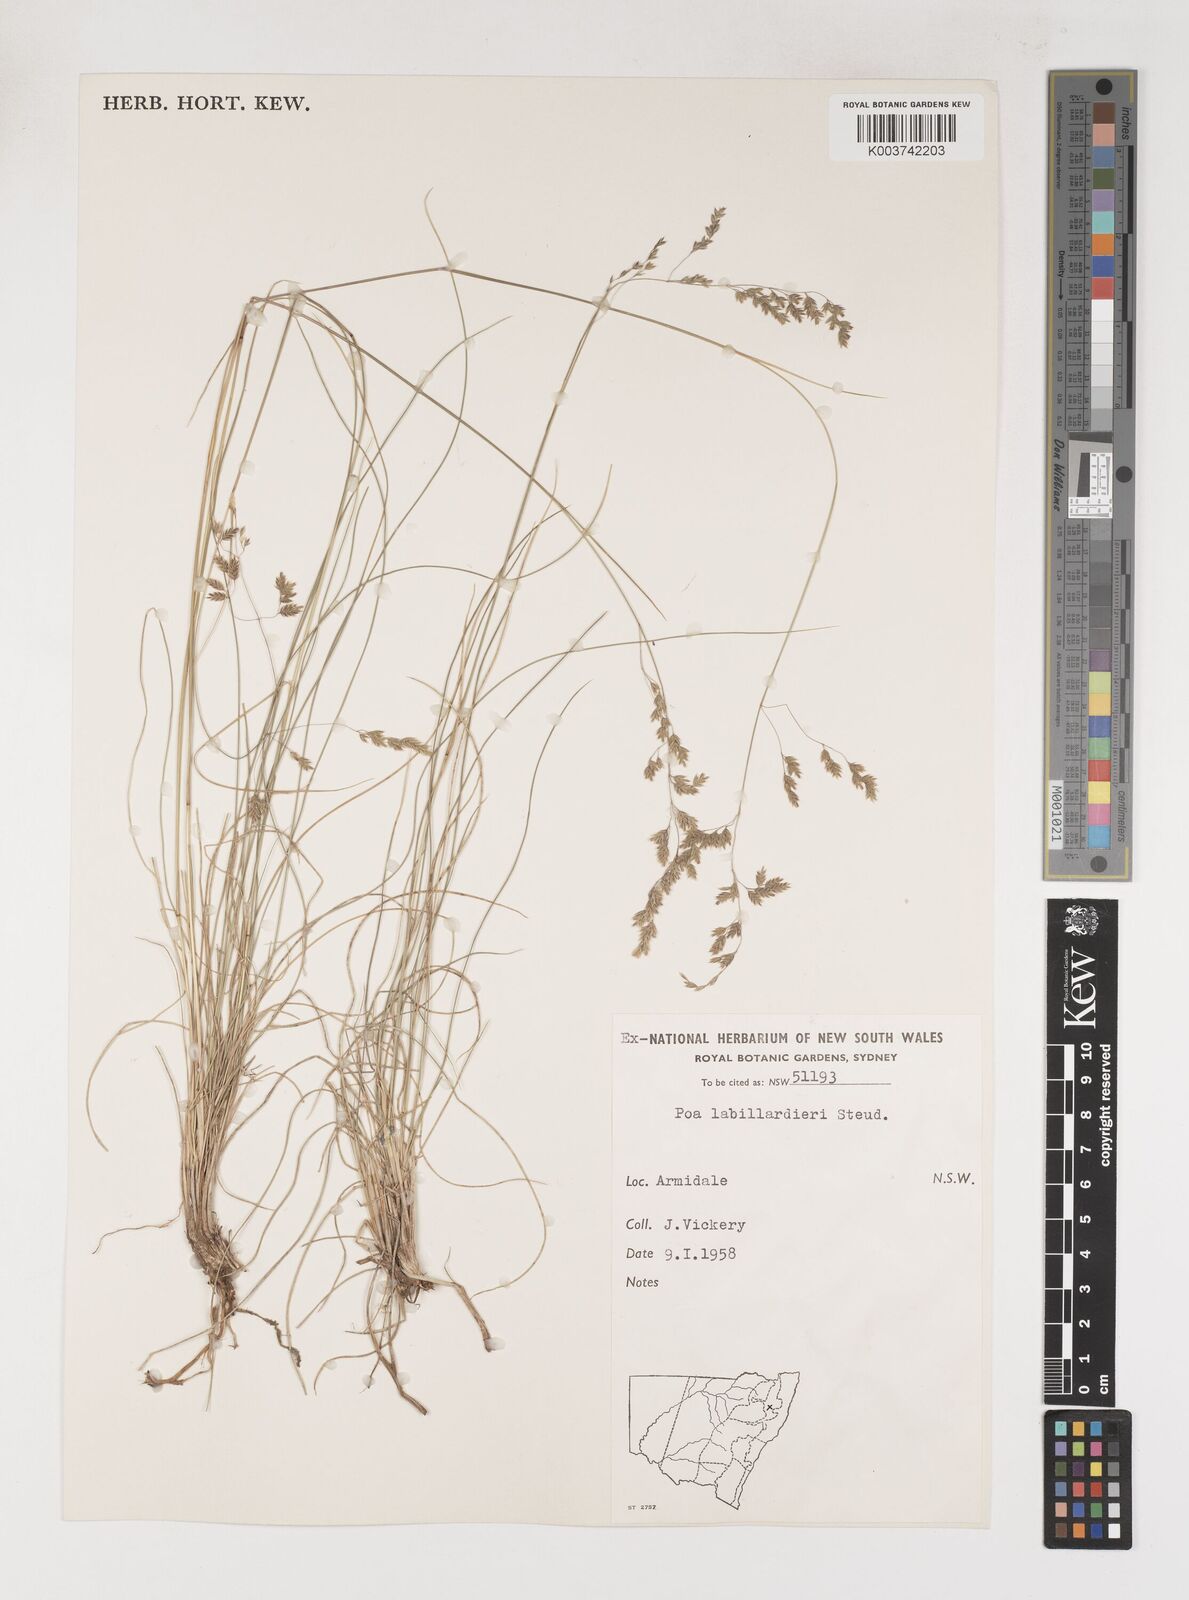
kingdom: Plantae
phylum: Tracheophyta
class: Liliopsida
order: Poales
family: Poaceae
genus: Poa
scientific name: Poa labillardierei
